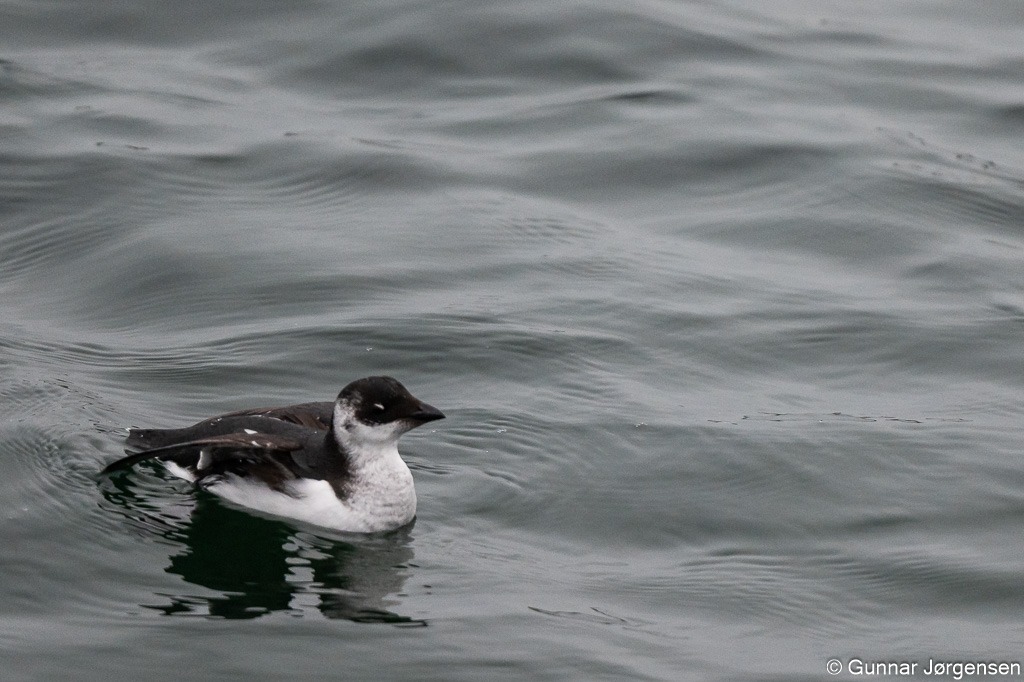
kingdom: Animalia
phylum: Chordata
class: Aves
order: Charadriiformes
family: Alcidae
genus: Alle
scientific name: Alle alle
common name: Søkonge
